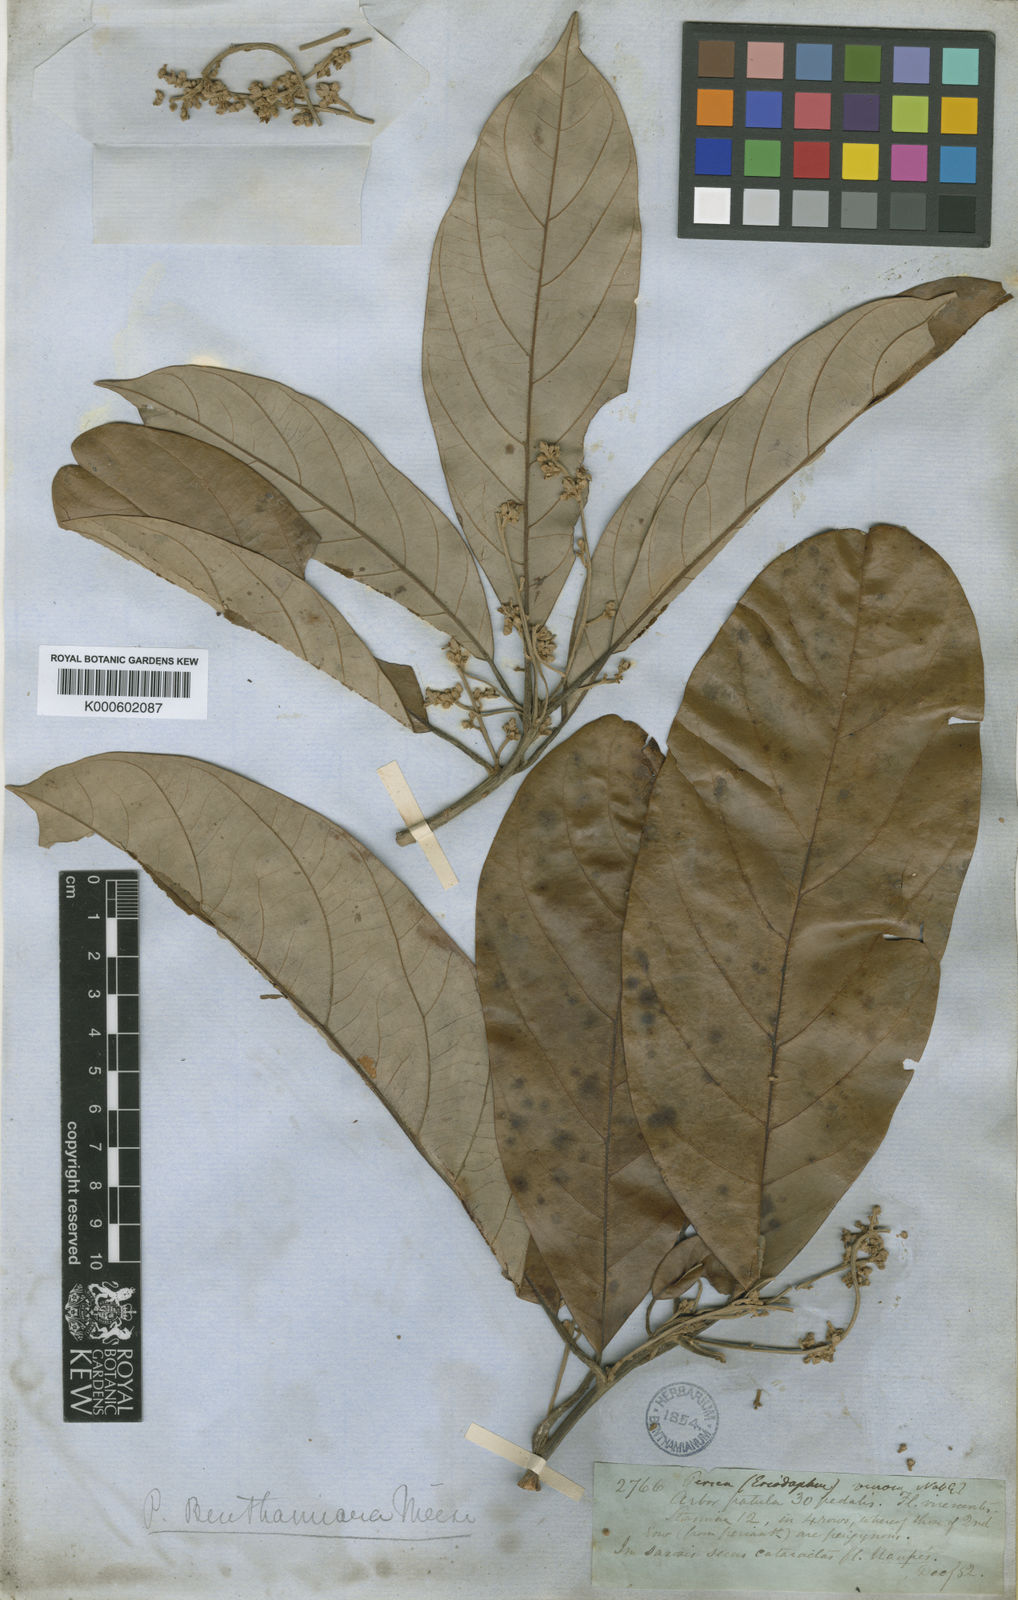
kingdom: Plantae
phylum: Tracheophyta
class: Magnoliopsida
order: Laurales
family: Lauraceae
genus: Persea
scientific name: Persea benthamiana
